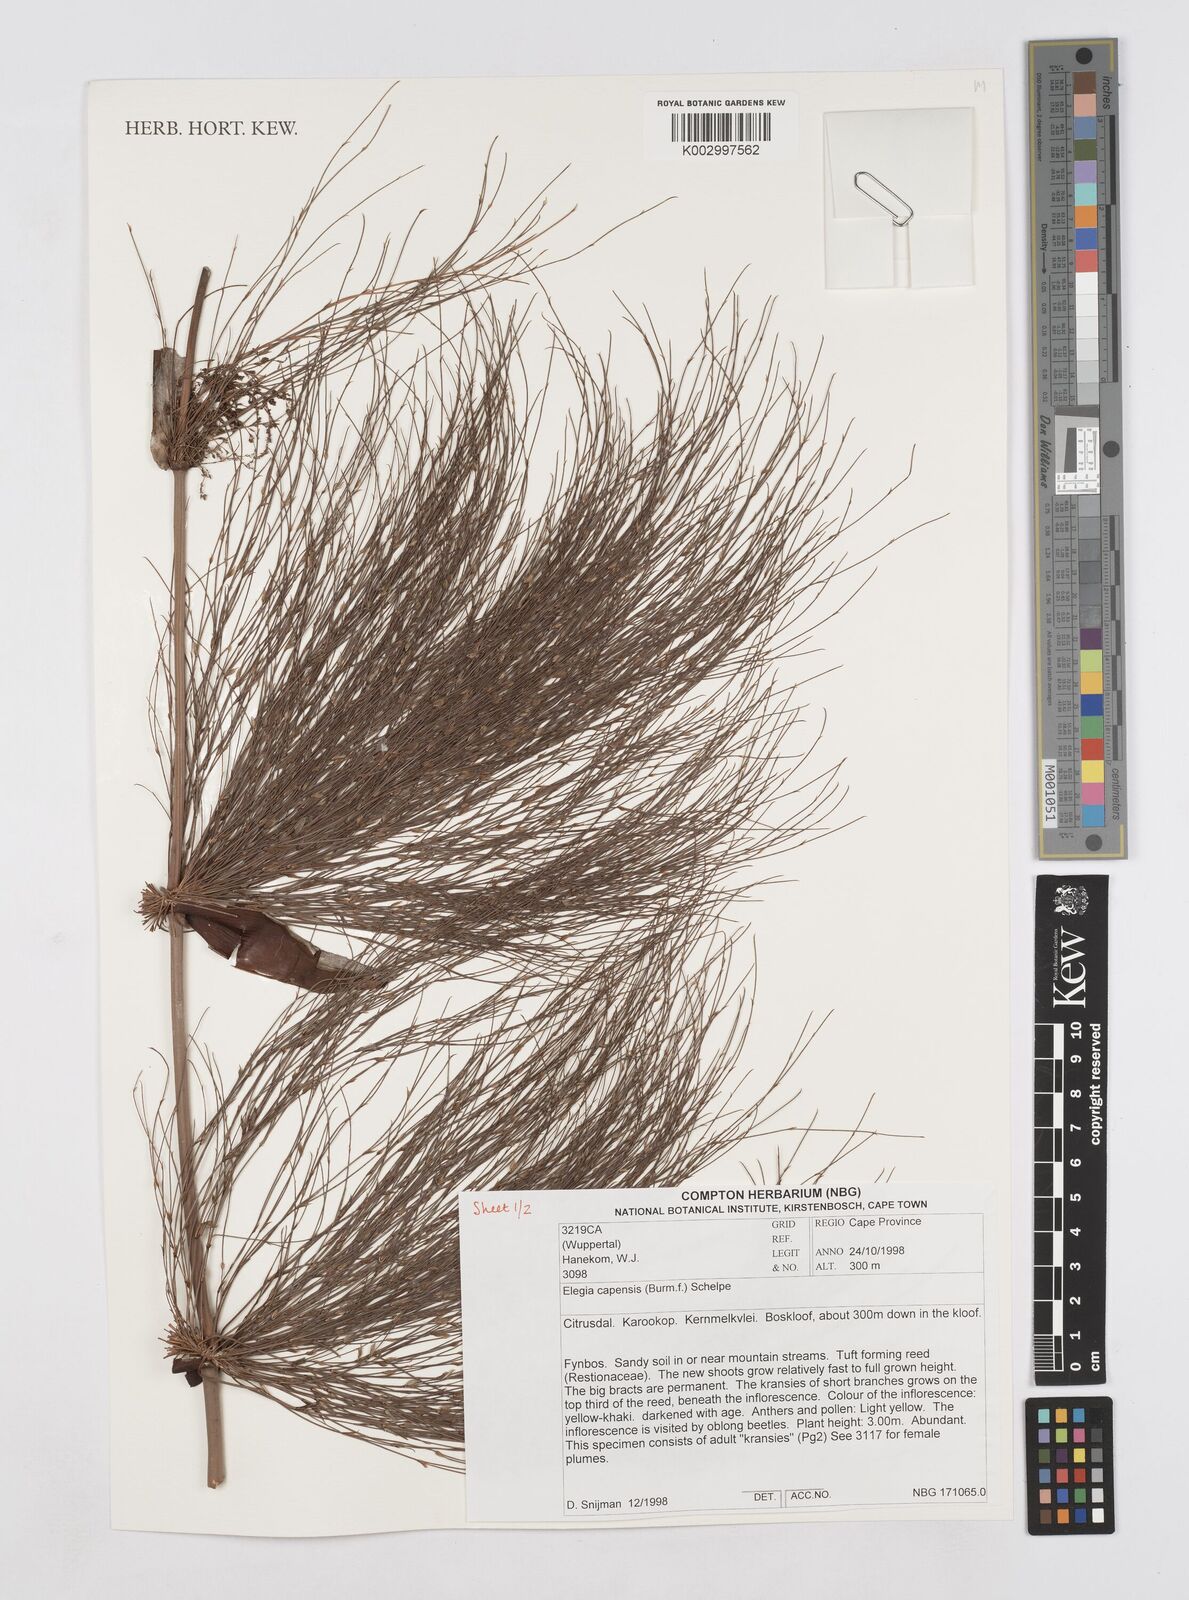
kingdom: Plantae
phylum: Tracheophyta
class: Liliopsida
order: Poales
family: Restionaceae
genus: Elegia
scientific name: Elegia capensis
